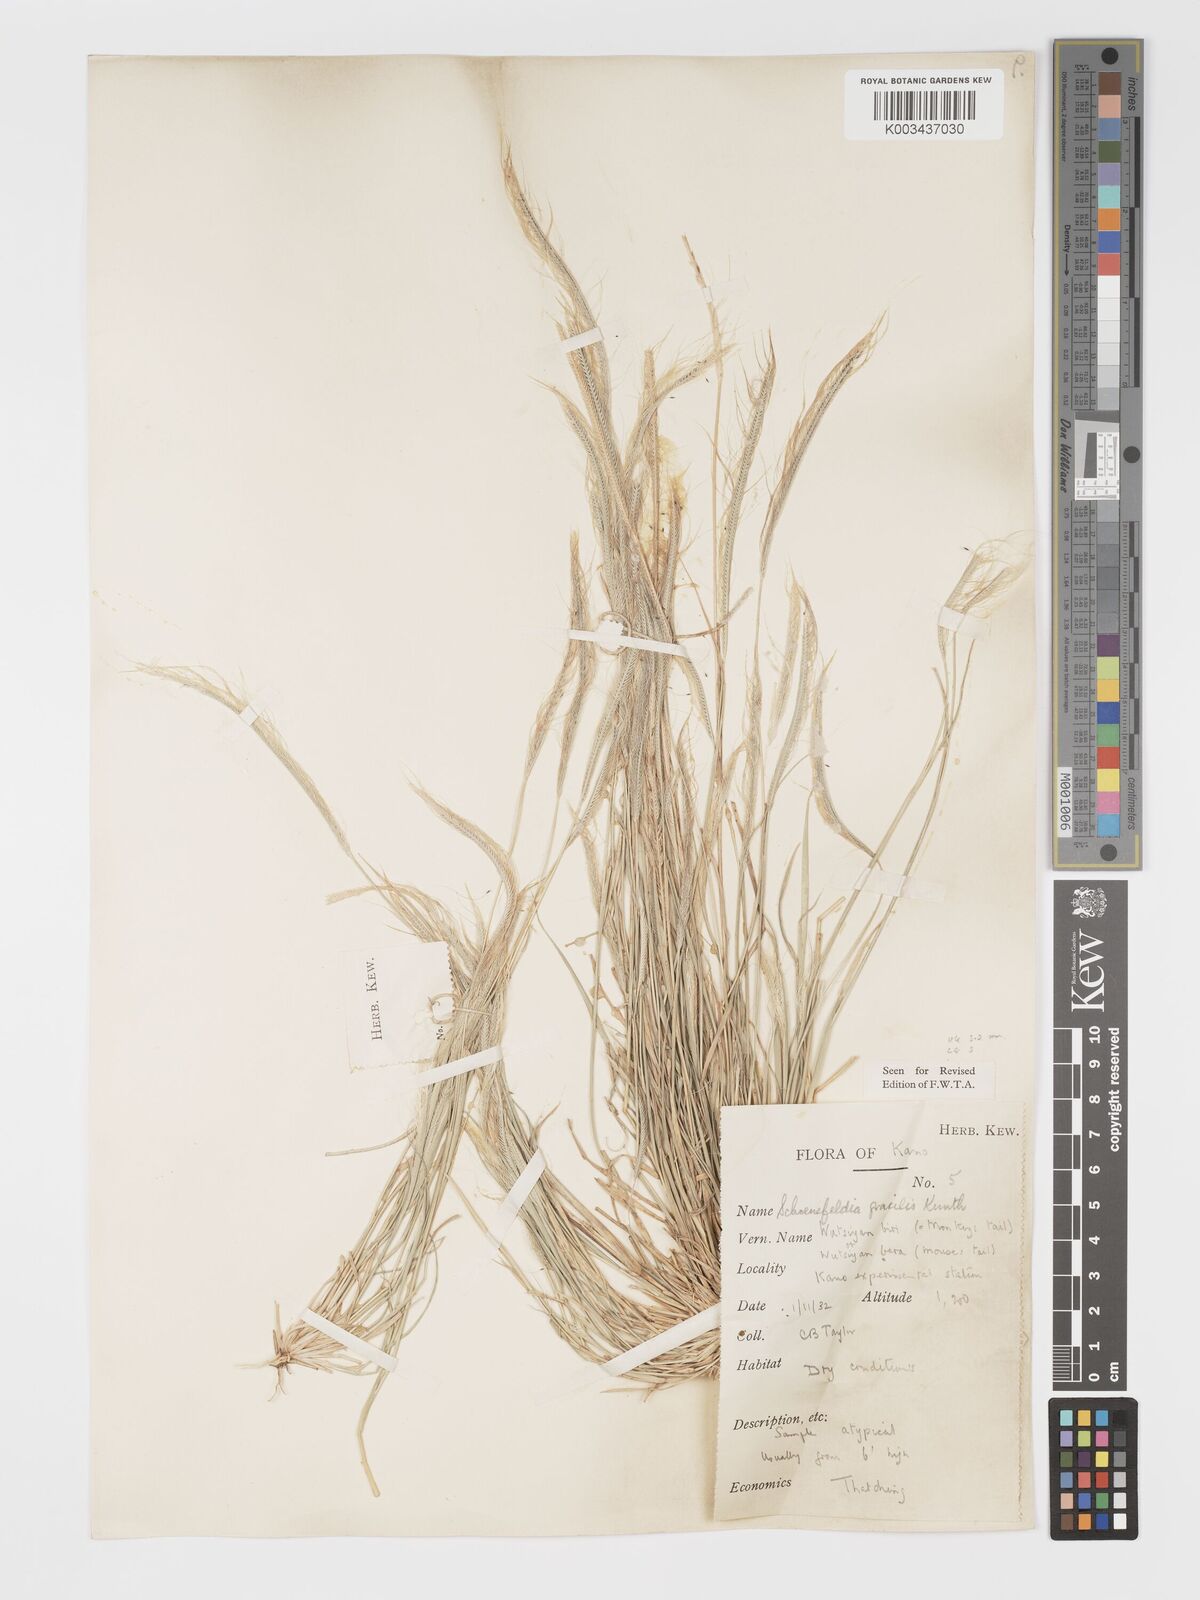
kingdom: Plantae
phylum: Tracheophyta
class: Liliopsida
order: Poales
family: Poaceae
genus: Schoenefeldia
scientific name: Schoenefeldia gracilis
